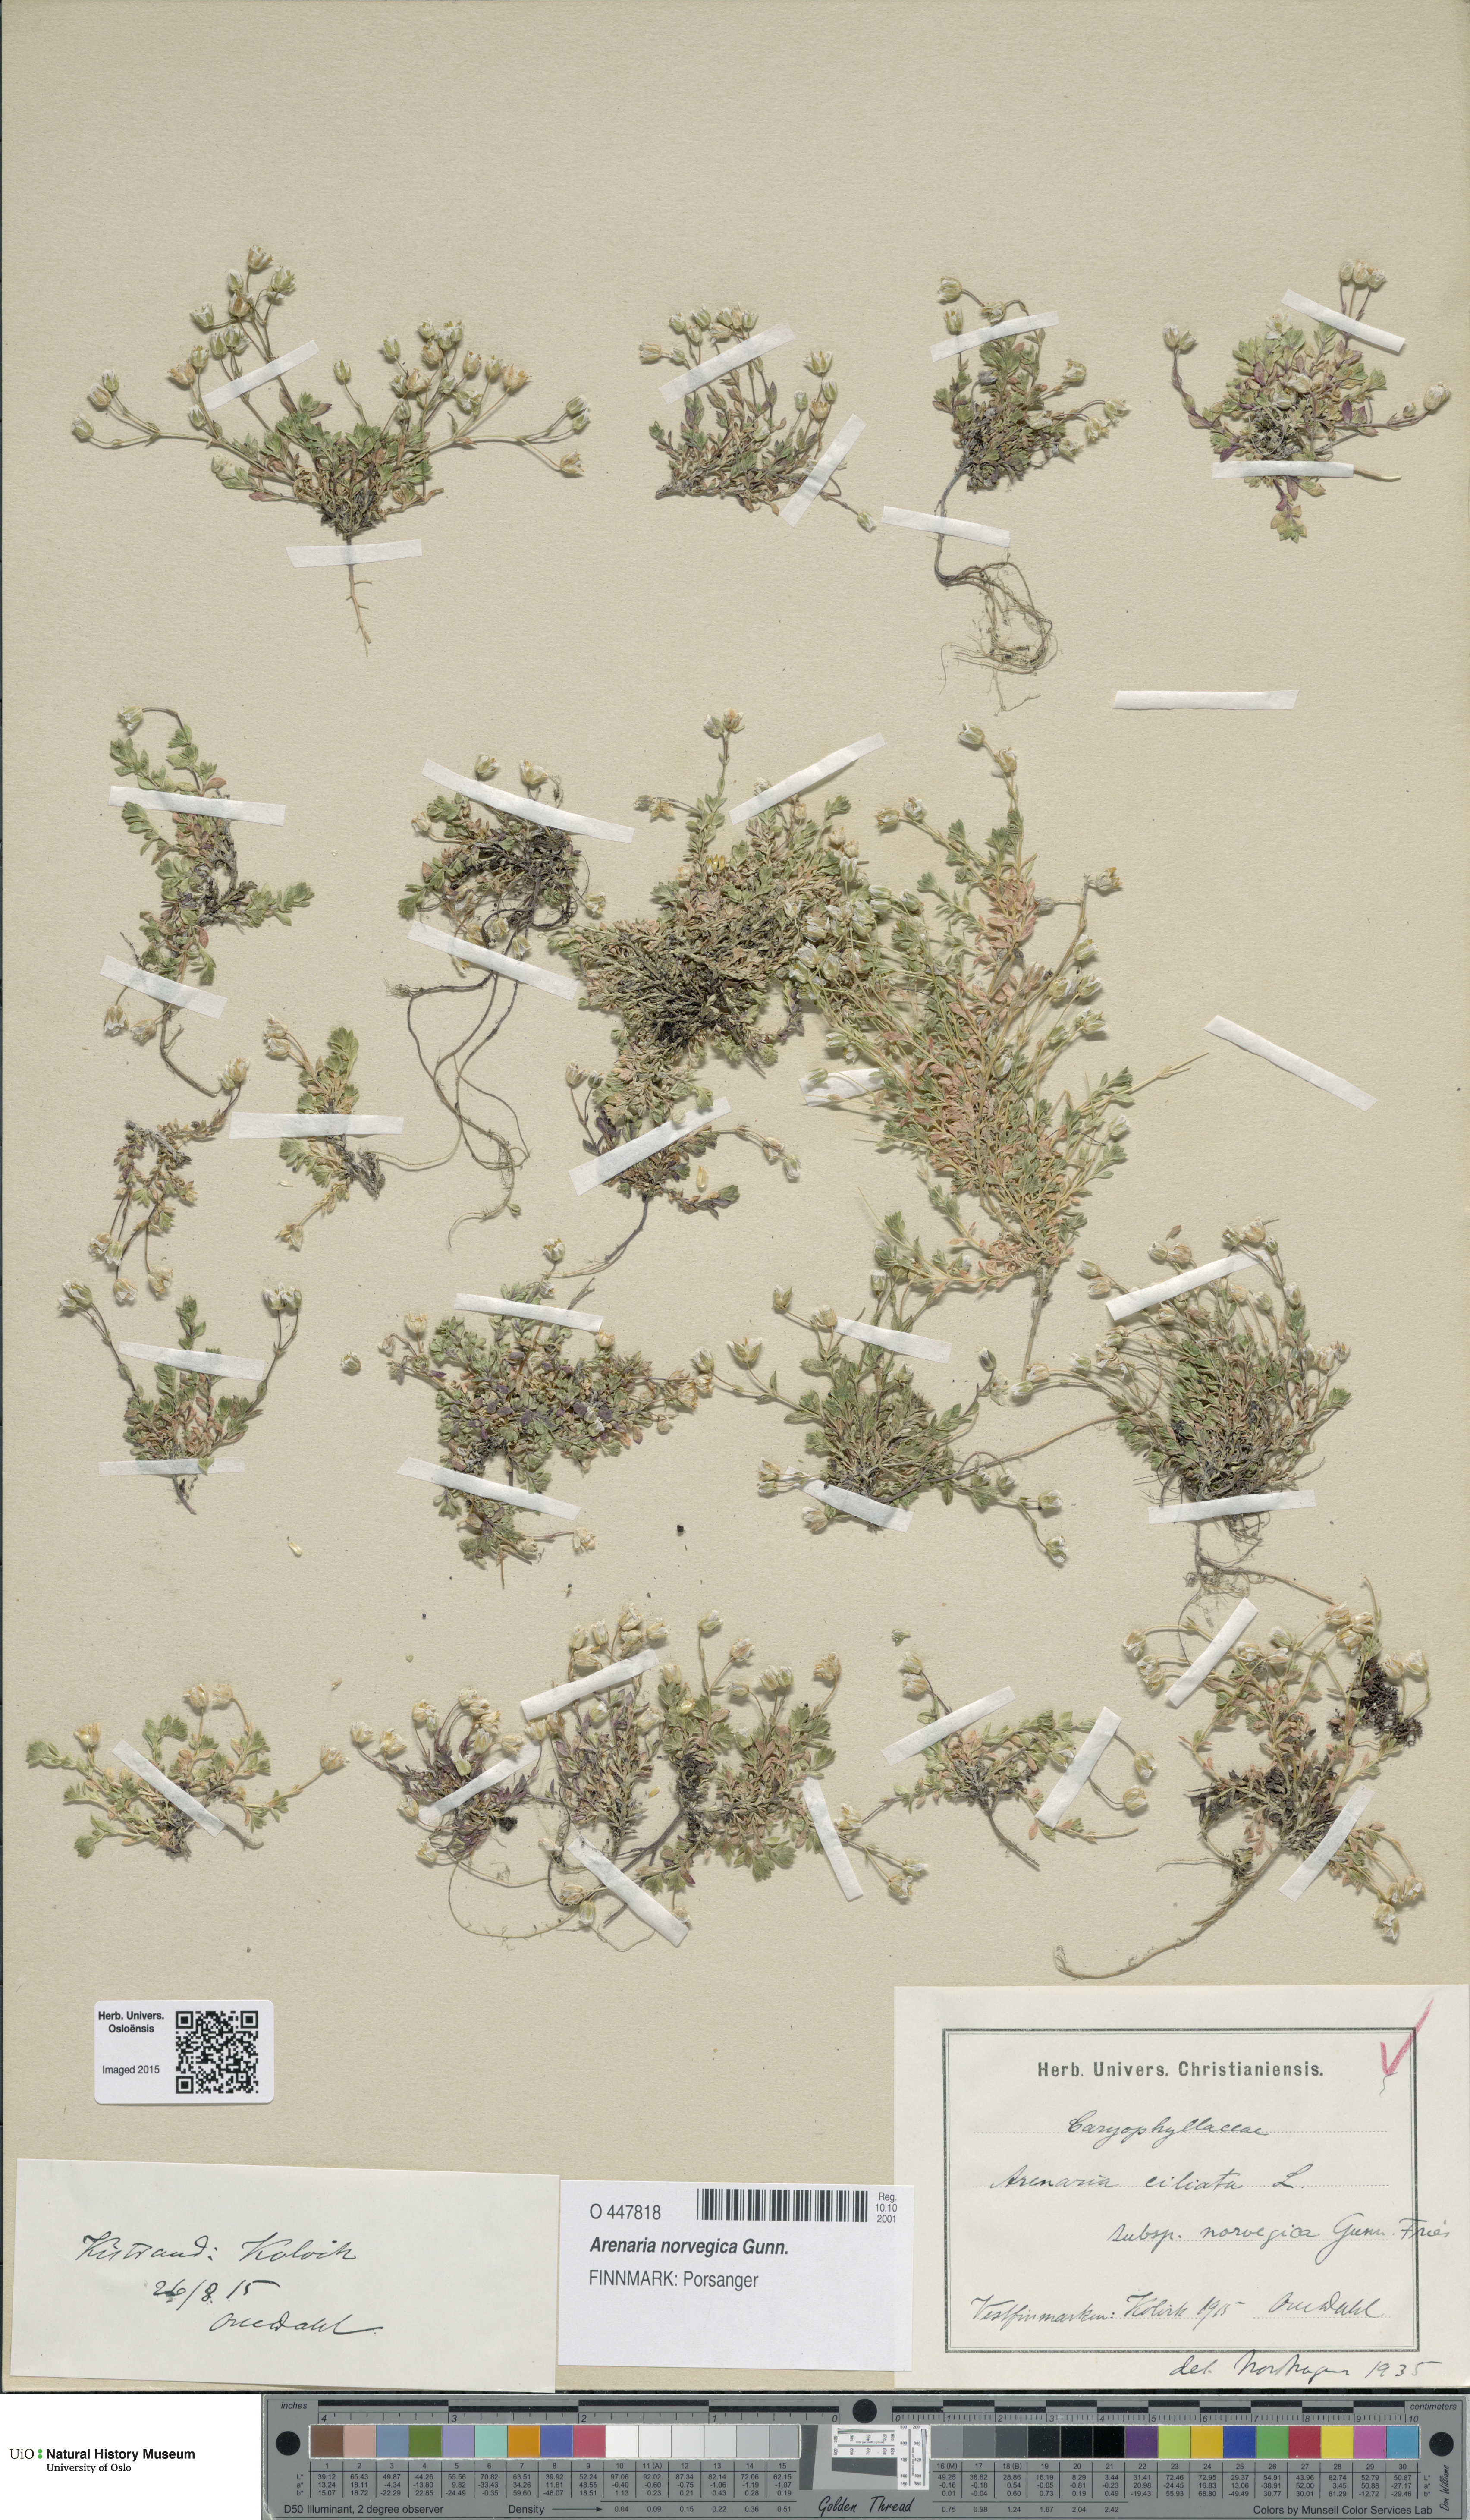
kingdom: Plantae
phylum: Tracheophyta
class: Magnoliopsida
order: Caryophyllales
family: Caryophyllaceae
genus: Arenaria
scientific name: Arenaria norvegica
